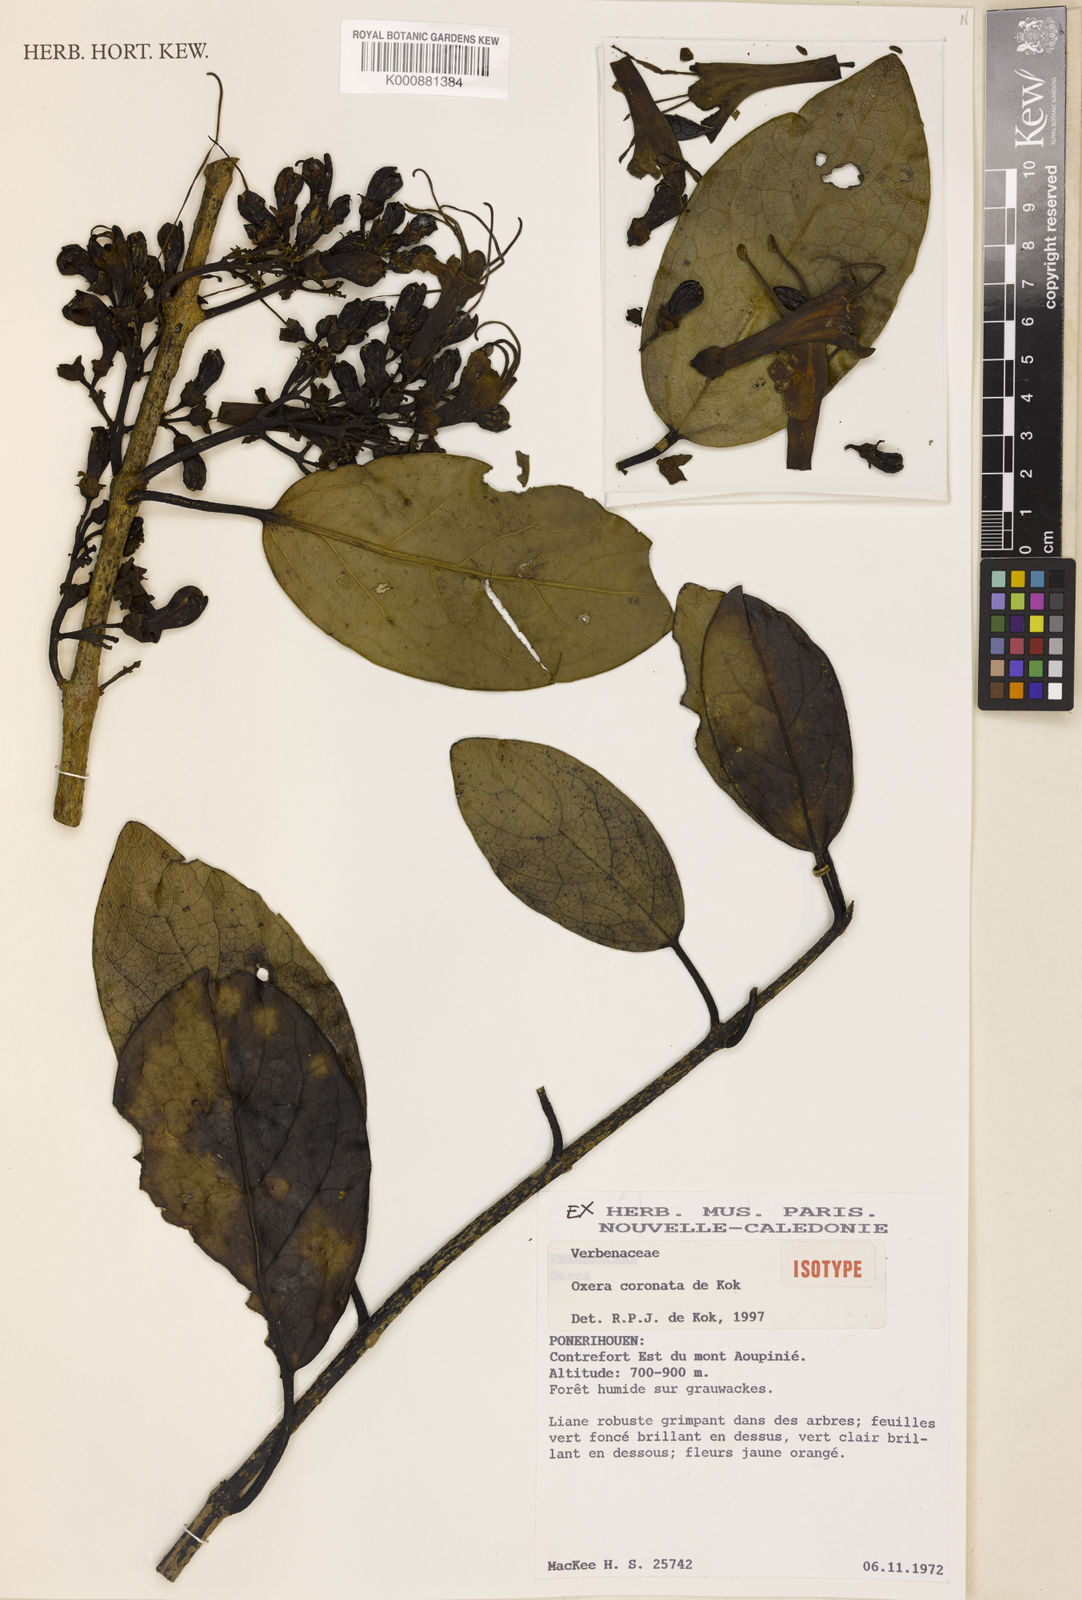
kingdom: Plantae
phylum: Tracheophyta
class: Magnoliopsida
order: Lamiales
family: Lamiaceae
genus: Oxera
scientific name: Oxera coronata
